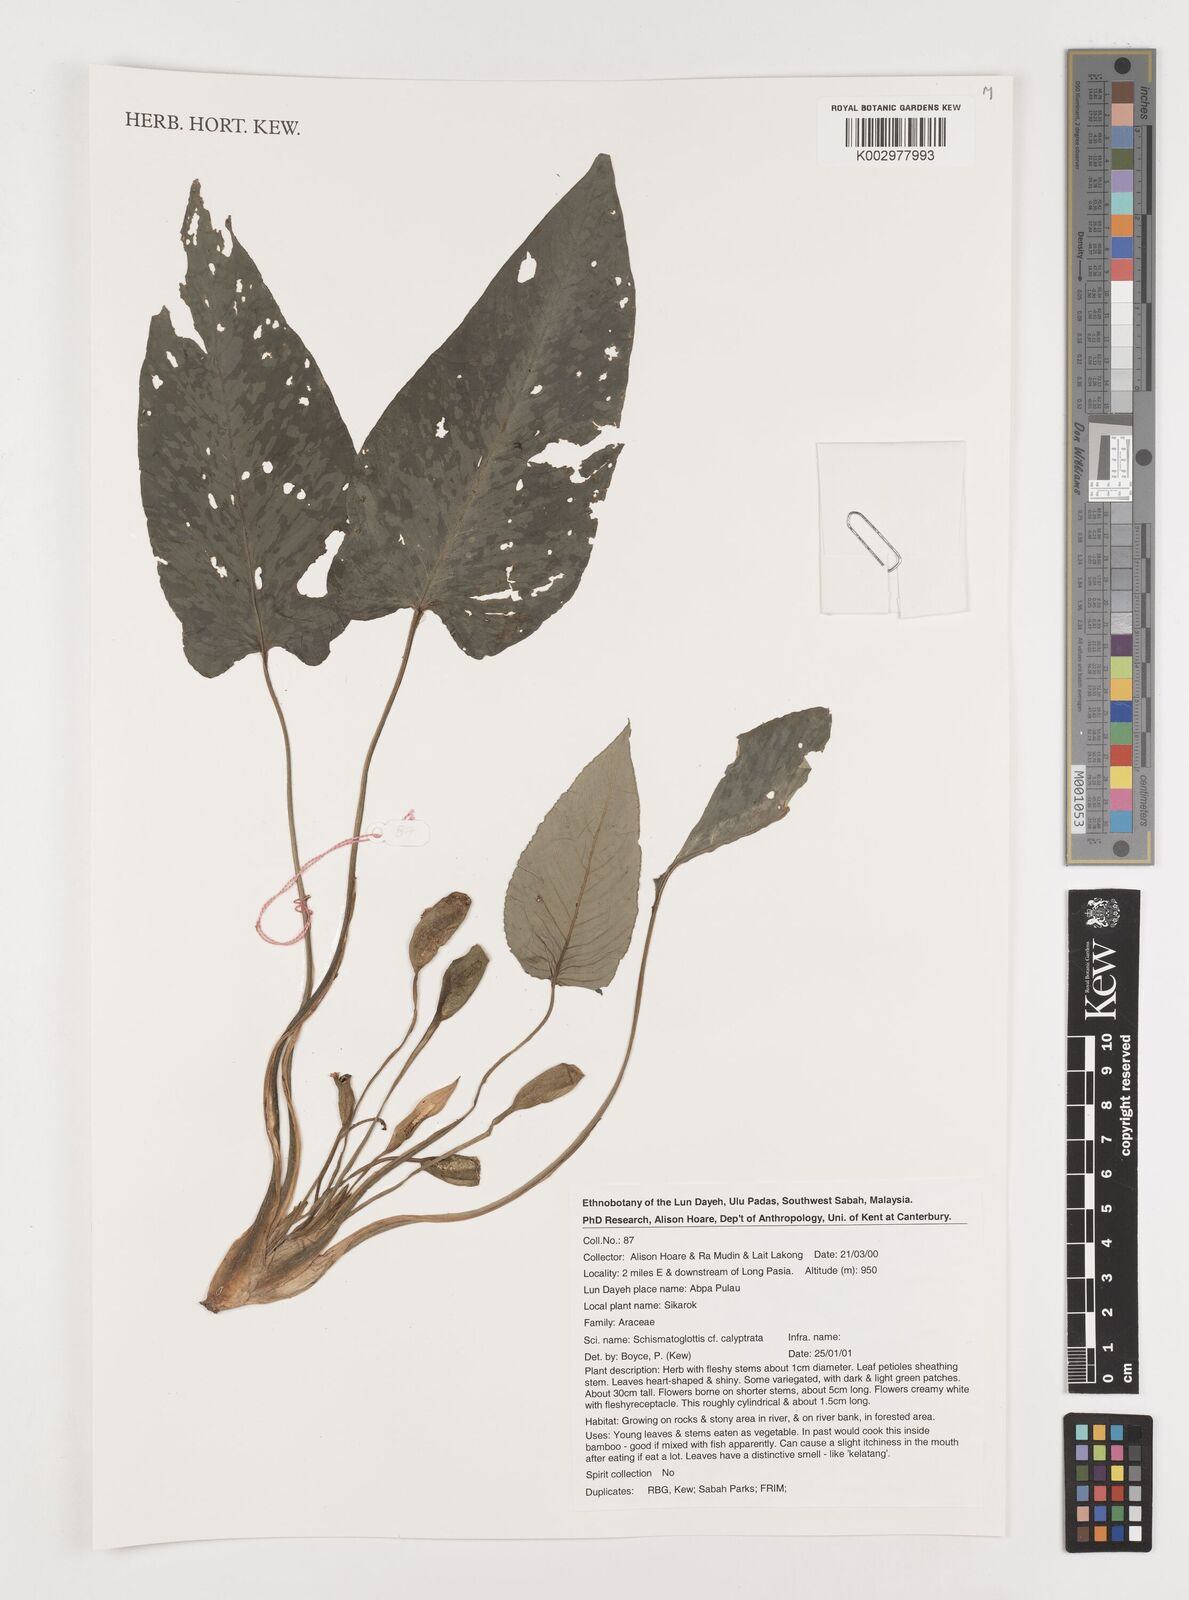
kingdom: Plantae
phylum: Tracheophyta
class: Liliopsida
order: Alismatales
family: Araceae
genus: Schismatoglottis
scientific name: Schismatoglottis calyptrata
